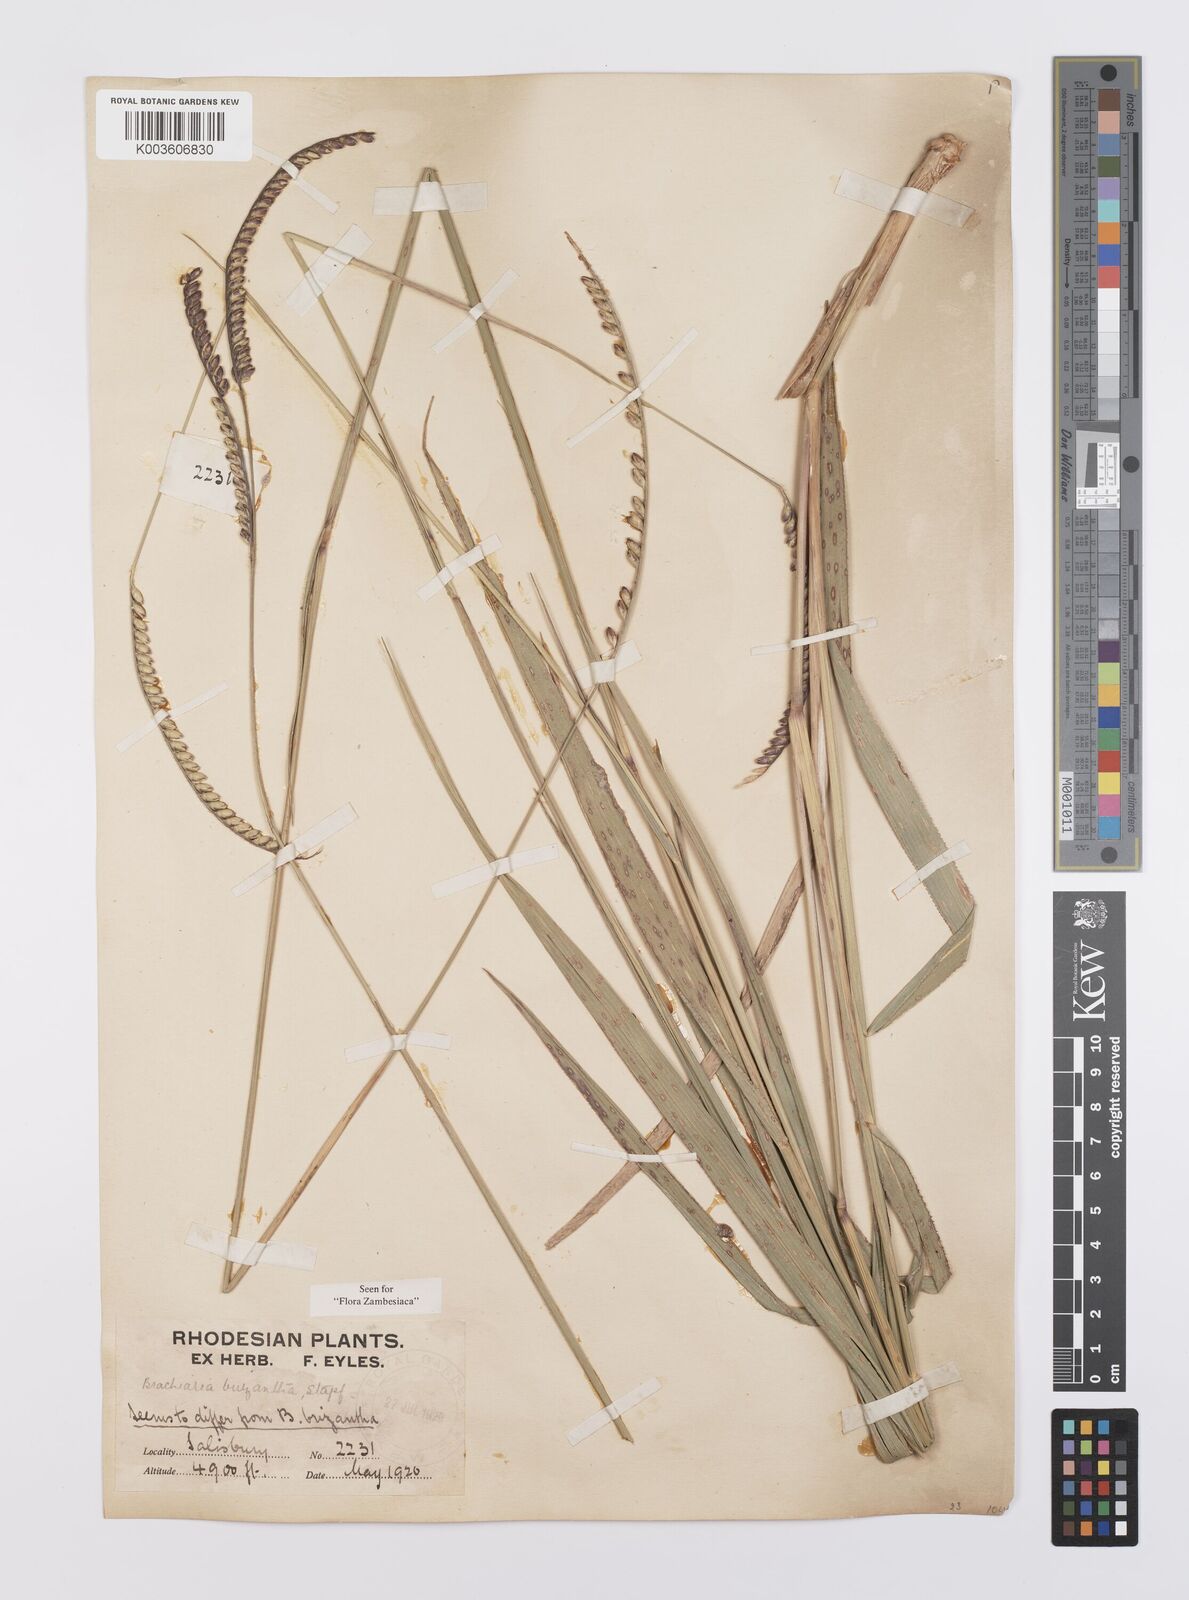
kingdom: Plantae
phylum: Tracheophyta
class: Liliopsida
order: Poales
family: Poaceae
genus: Urochloa
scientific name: Urochloa brizantha
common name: Palisade signalgrass
